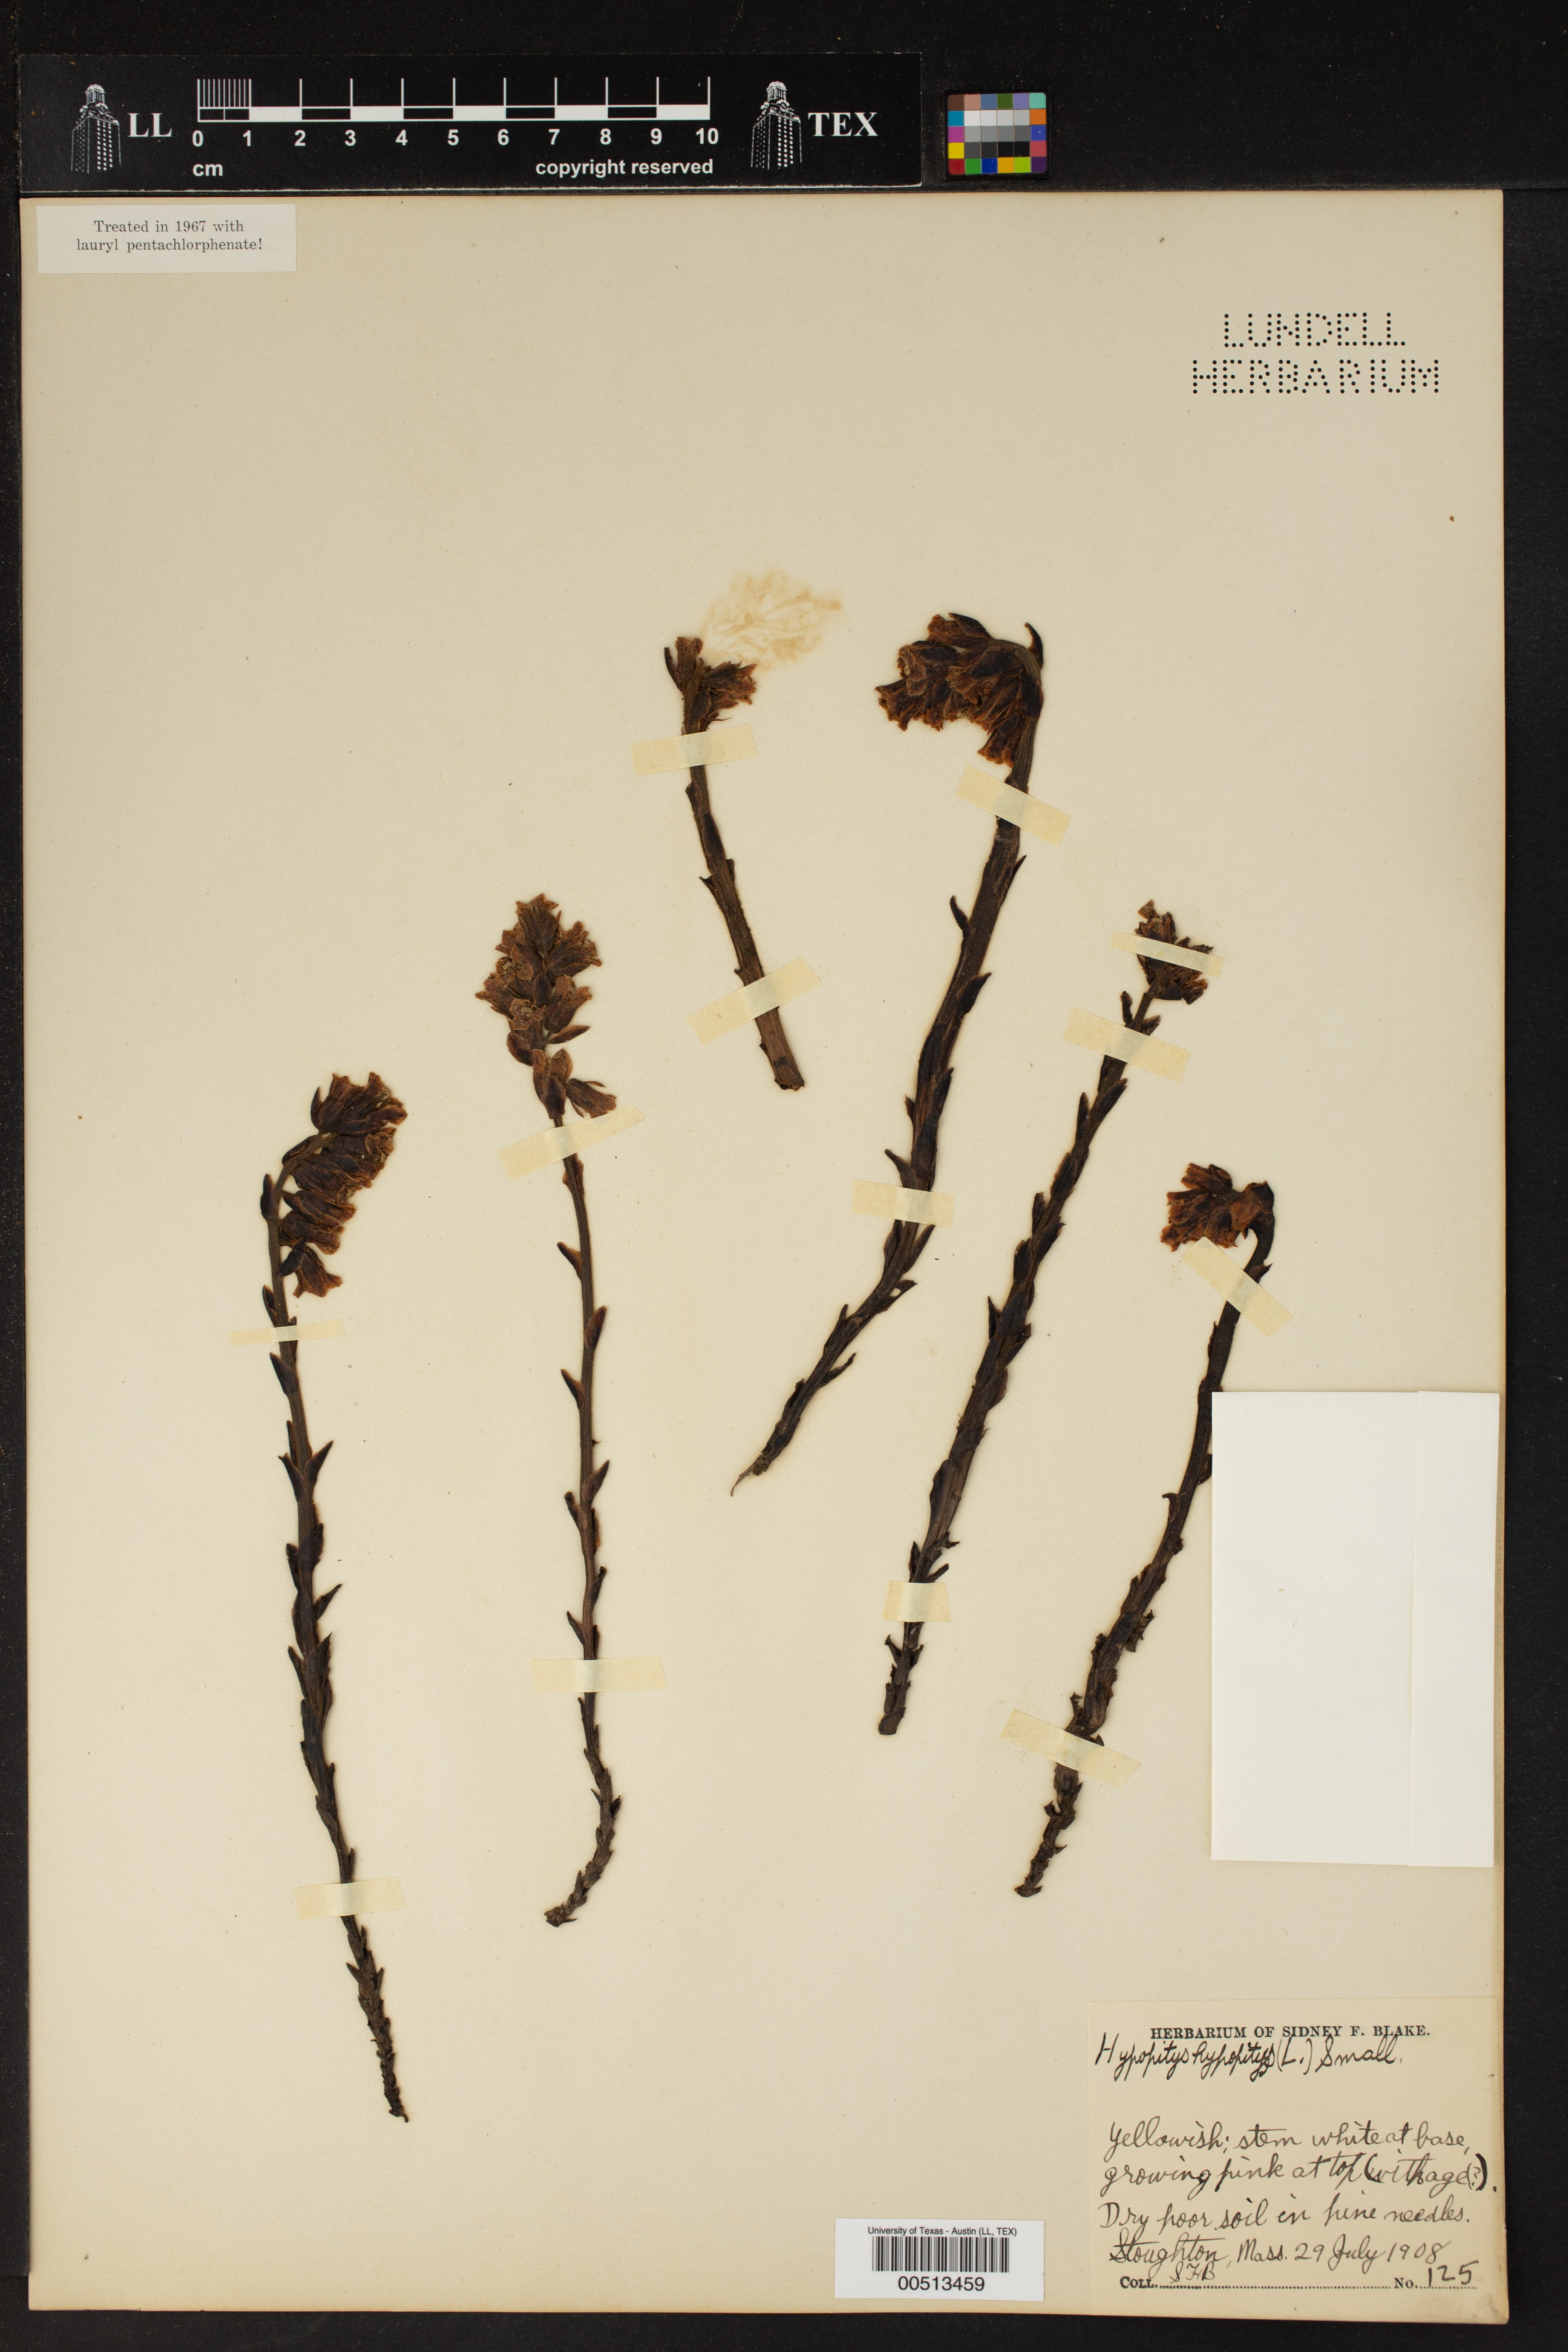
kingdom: Plantae
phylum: Tracheophyta
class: Magnoliopsida
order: Ericales
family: Ericaceae
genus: Hypopitys
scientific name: Hypopitys monotropa
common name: Yellow bird's-nest
